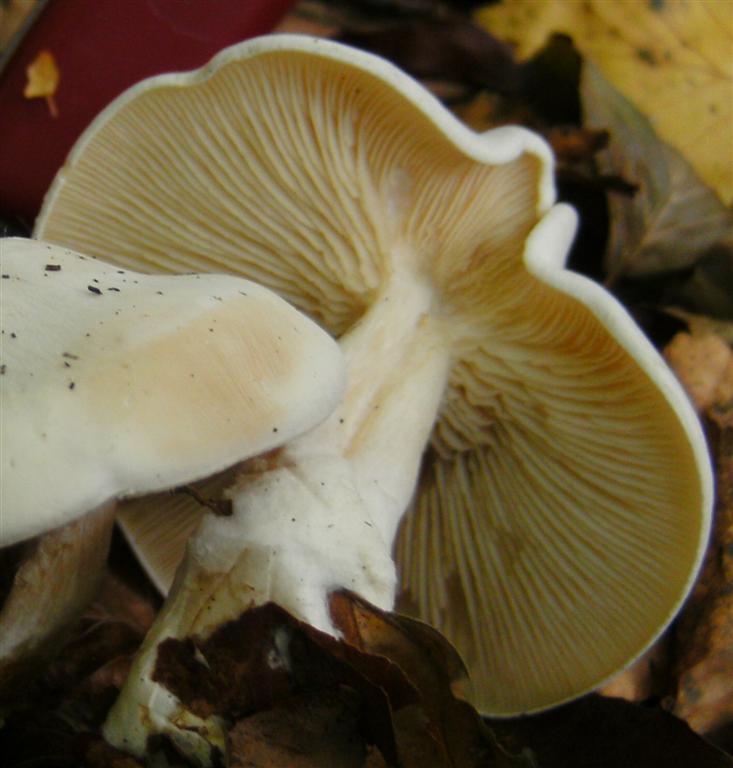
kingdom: Fungi
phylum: Basidiomycota
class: Agaricomycetes
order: Agaricales
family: Tricholomataceae
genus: Clitocybe
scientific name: Clitocybe phyllophila
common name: løv-tragthat
